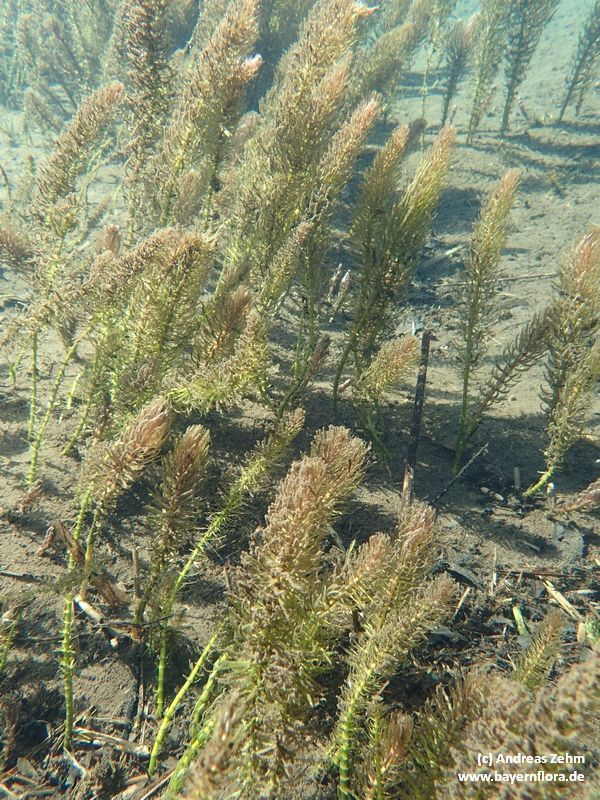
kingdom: Plantae
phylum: Tracheophyta
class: Magnoliopsida
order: Lamiales
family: Plantaginaceae
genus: Hippuris
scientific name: Hippuris vulgaris
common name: Mare's-tail
